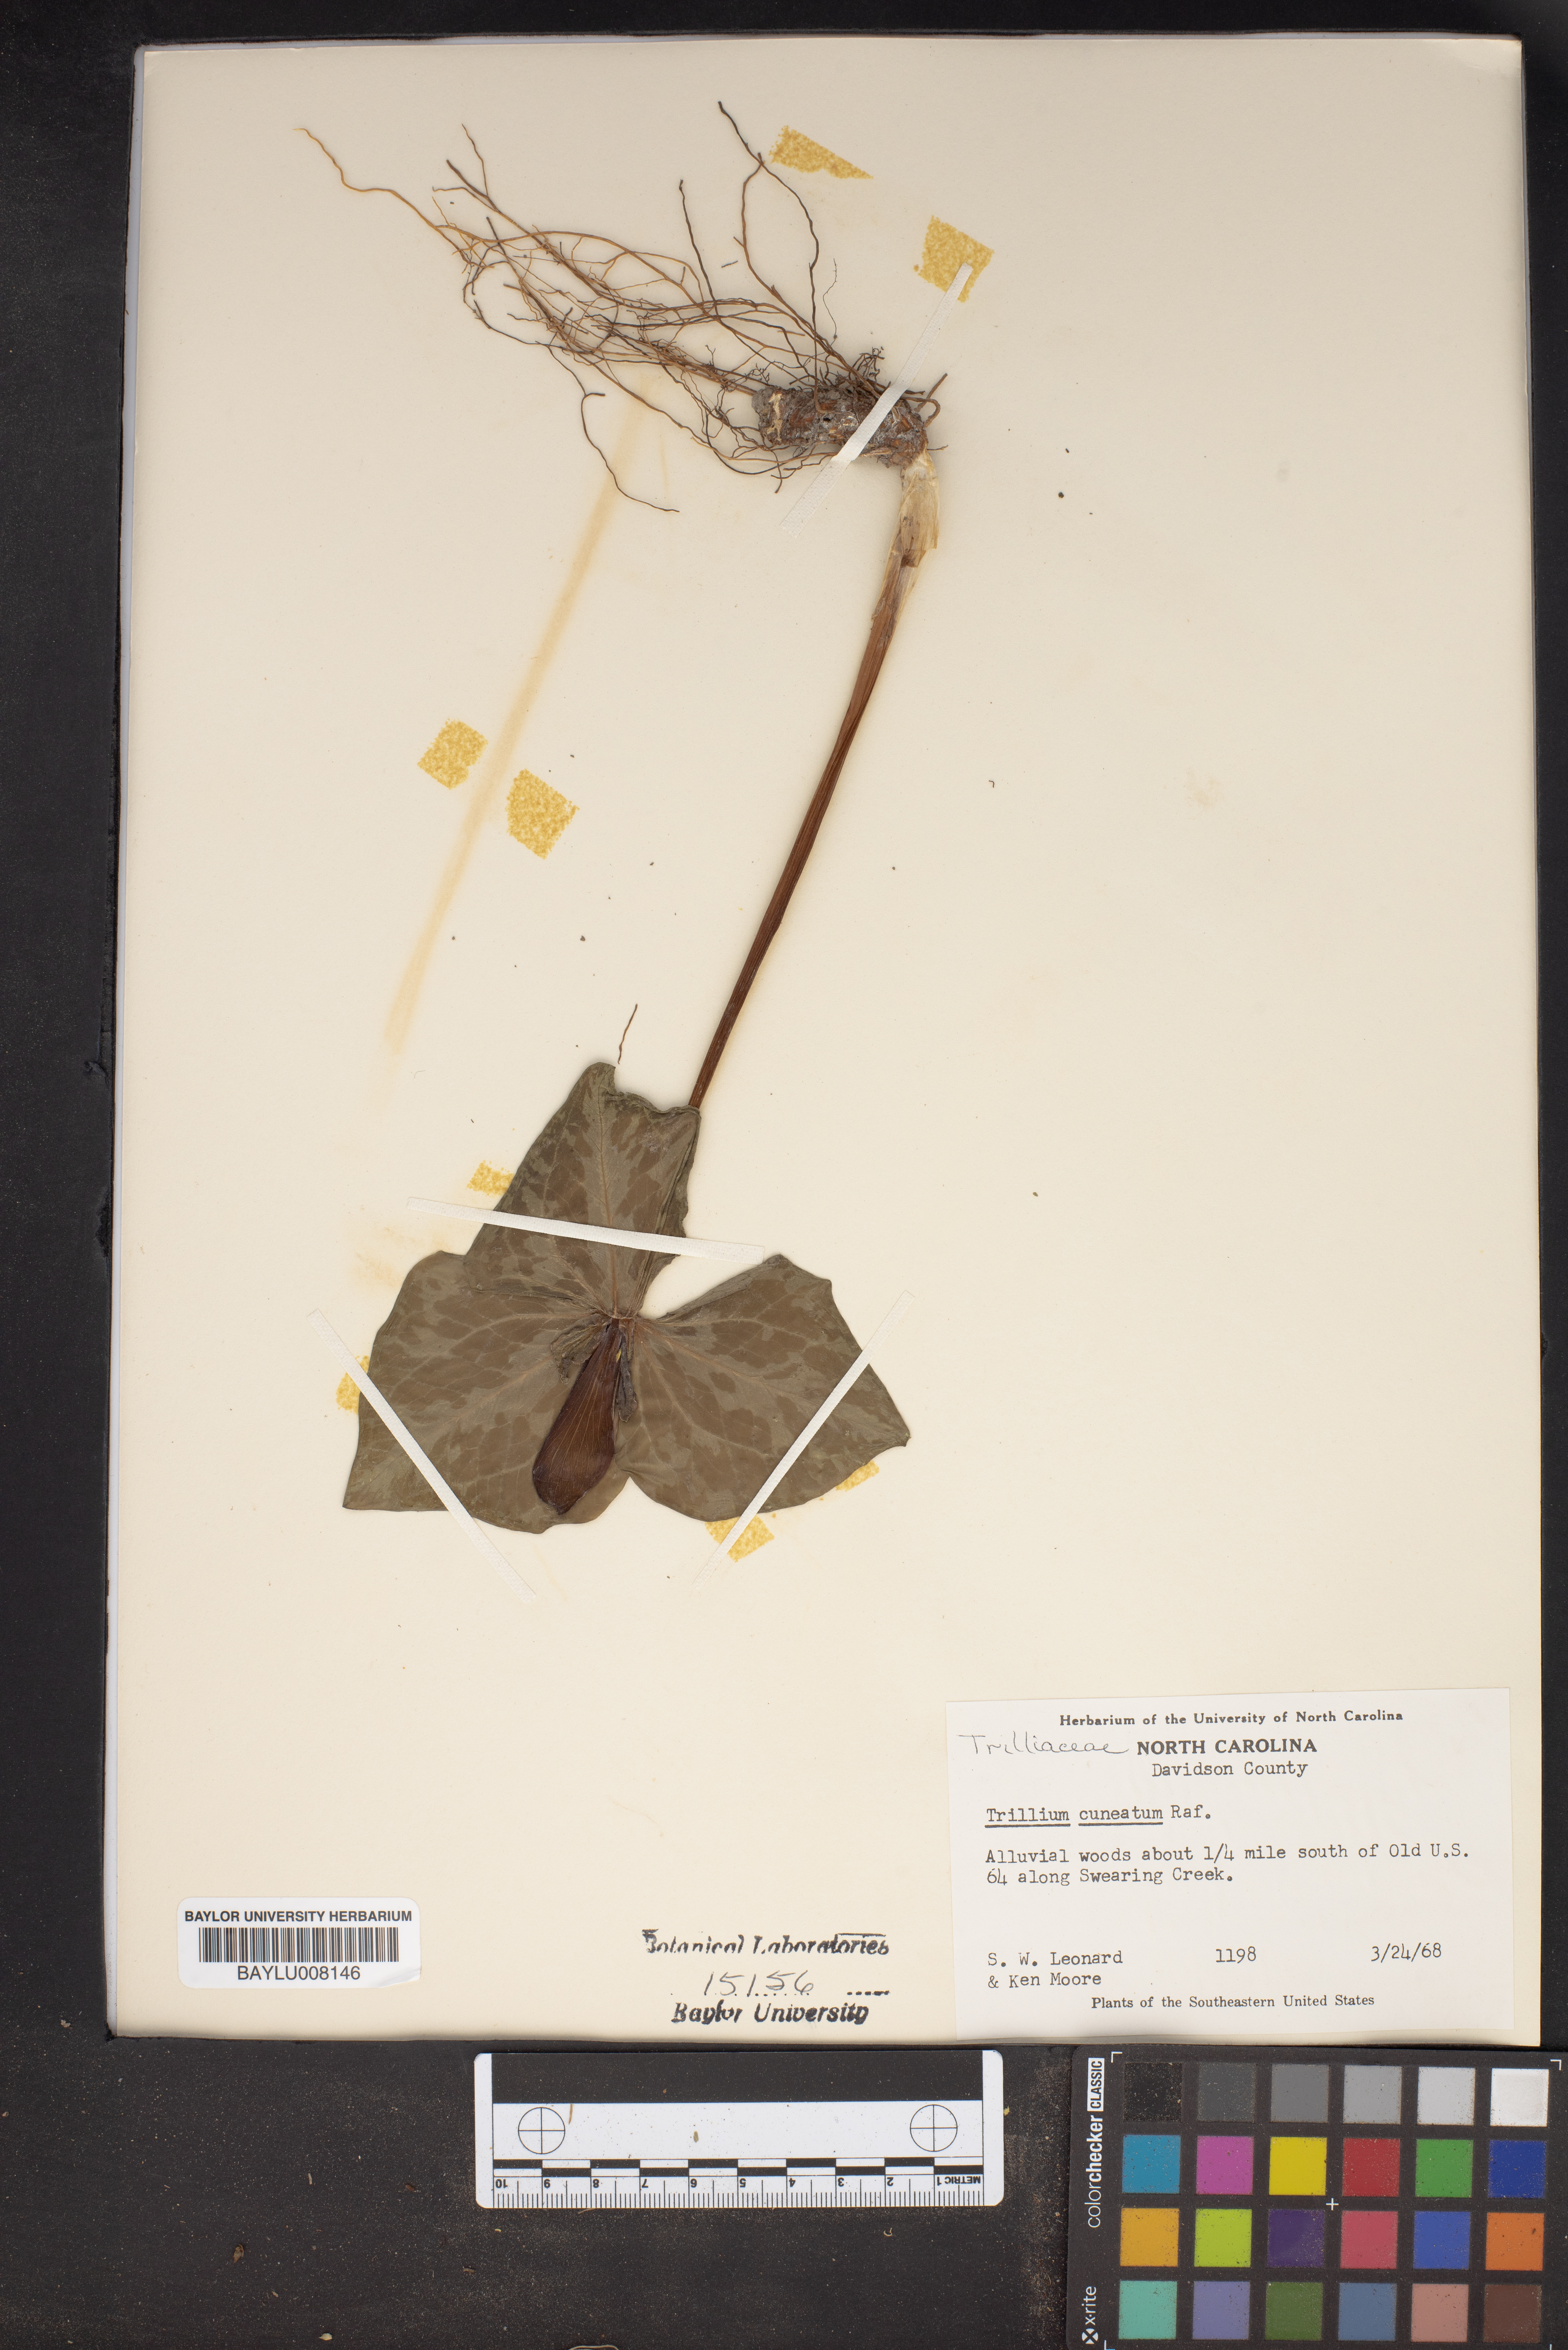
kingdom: Plantae
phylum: Tracheophyta
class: Liliopsida
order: Liliales
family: Melanthiaceae
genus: Trillium
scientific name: Trillium cuneatum
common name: Cuneate trillium
